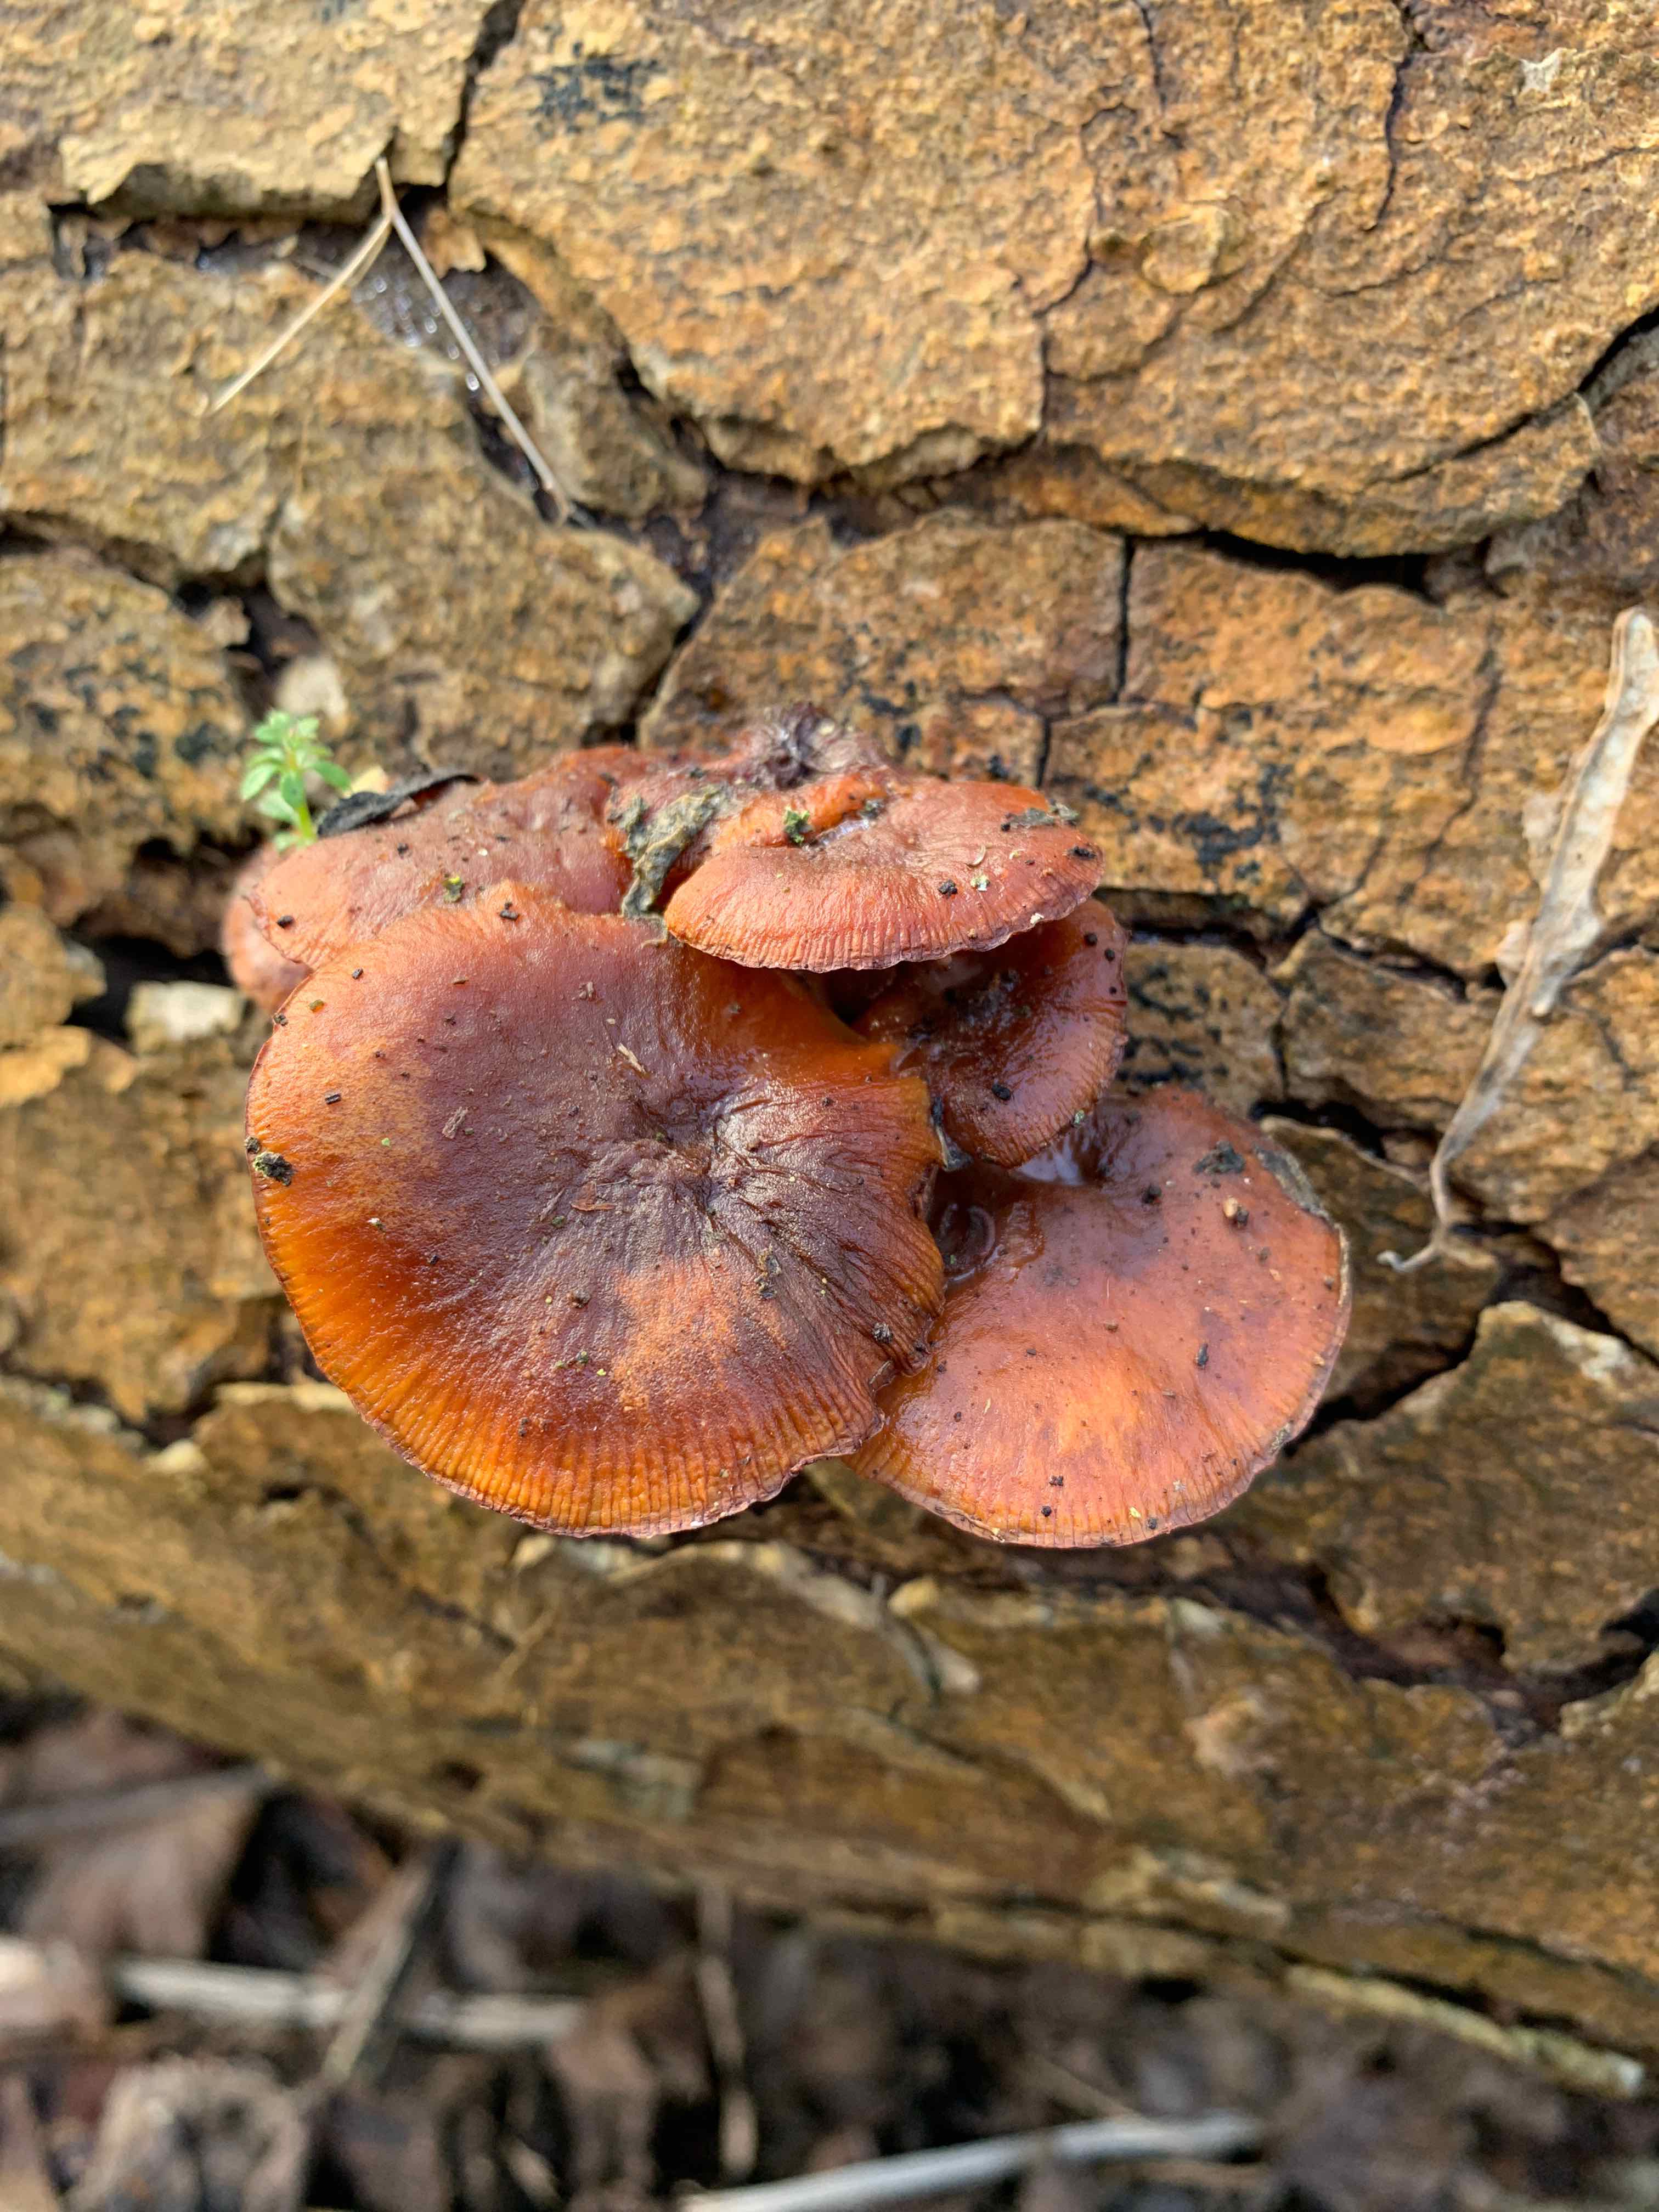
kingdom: Fungi
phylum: Basidiomycota
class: Agaricomycetes
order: Agaricales
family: Physalacriaceae
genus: Flammulina
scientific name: Flammulina
